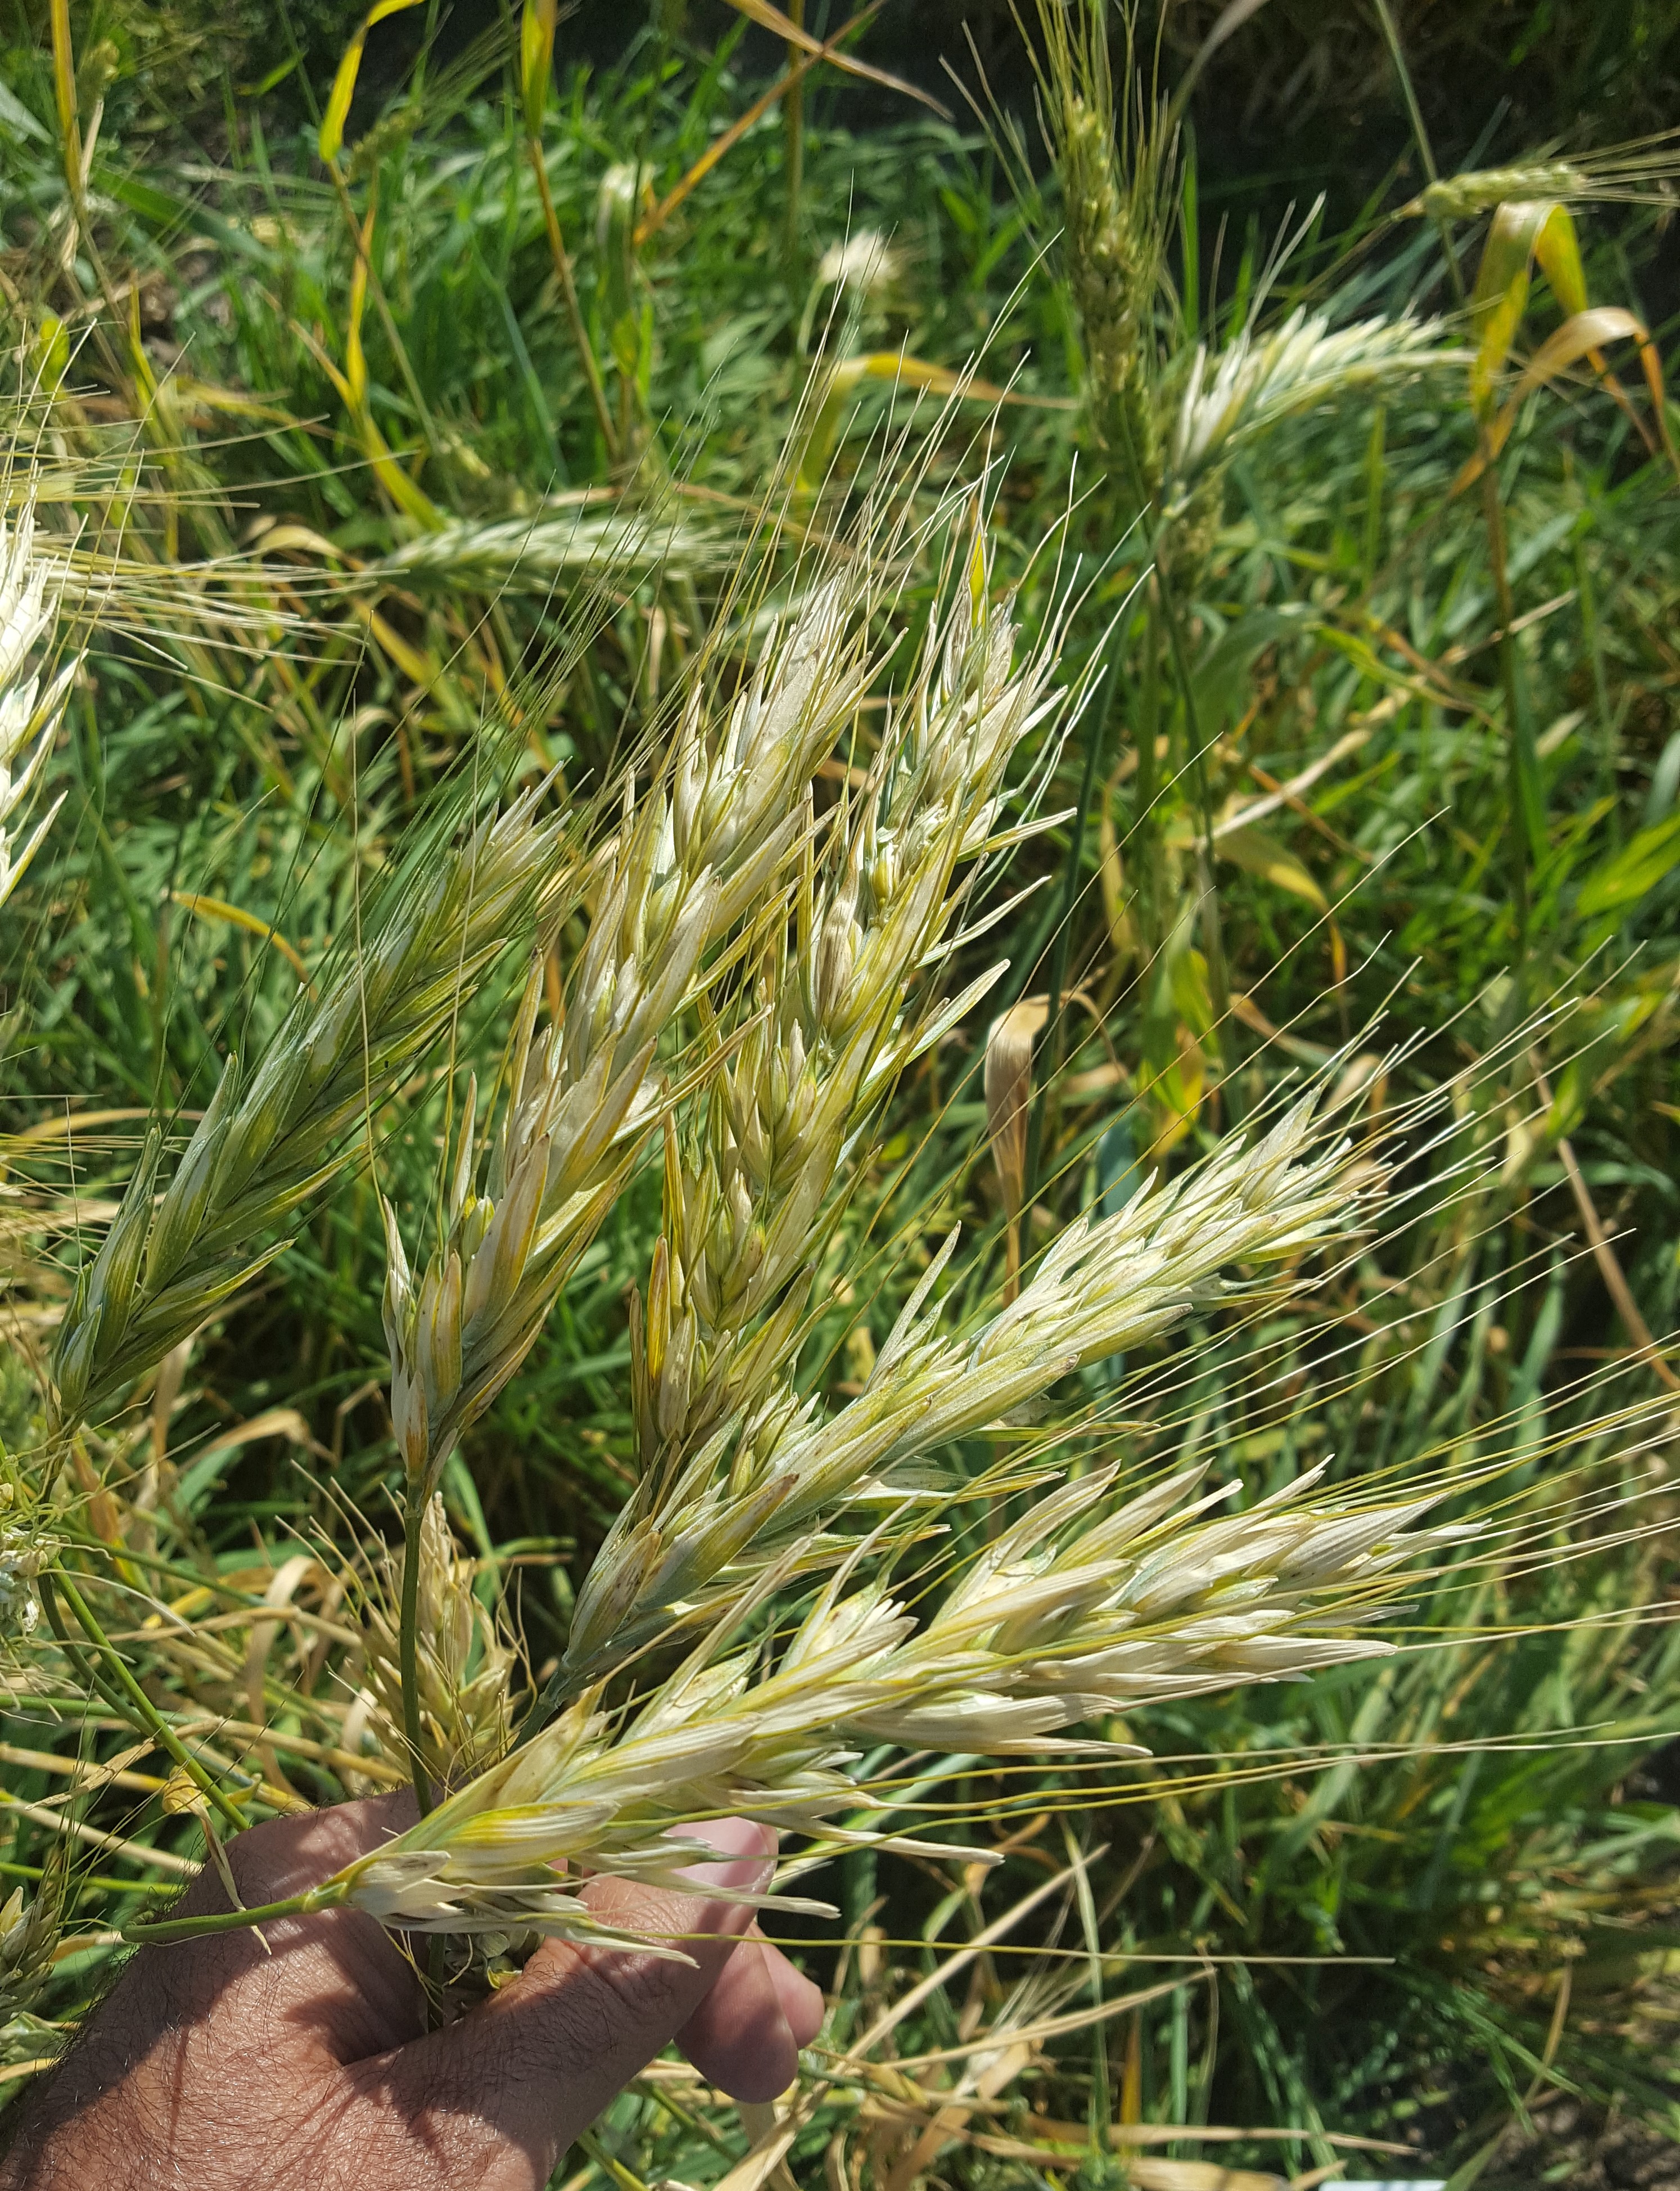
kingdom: Plantae
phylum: Tracheophyta
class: Liliopsida
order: Poales
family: Poaceae
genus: Triticum
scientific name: Triticum turgidum
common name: Rivet wheat
